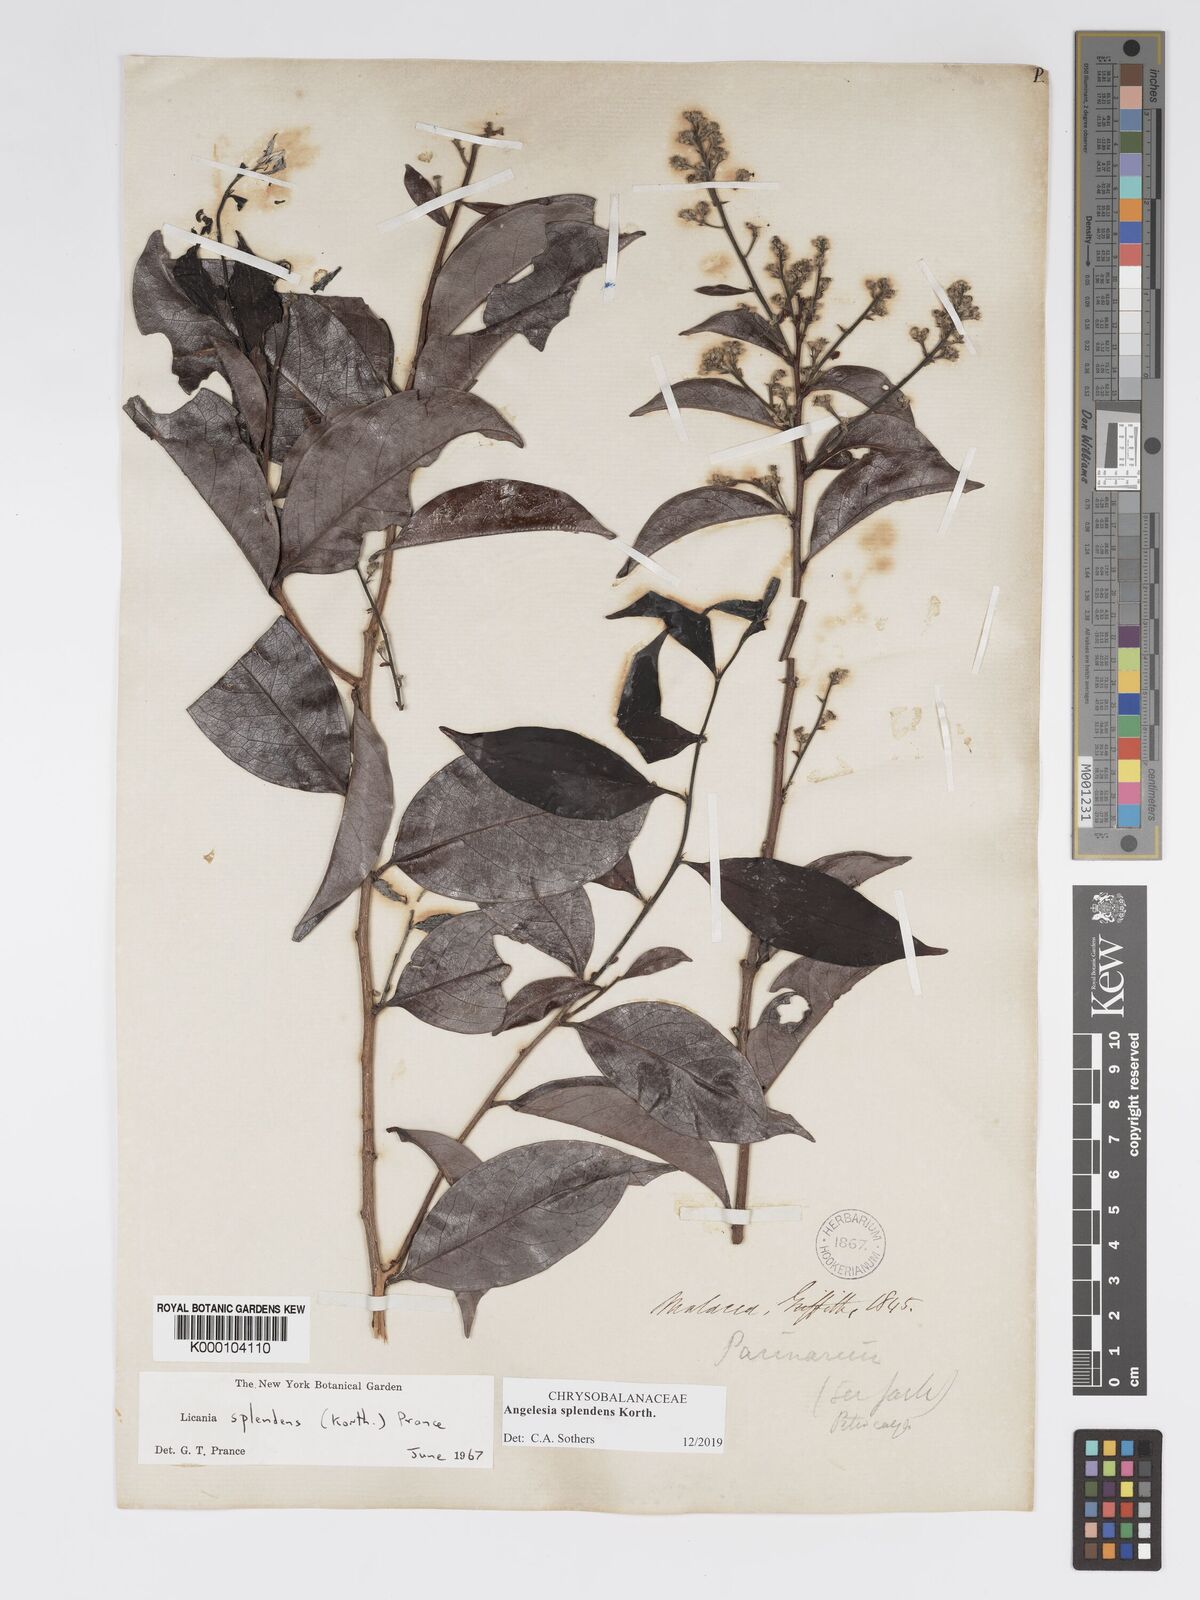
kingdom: Plantae
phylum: Tracheophyta
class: Magnoliopsida
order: Malpighiales
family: Chrysobalanaceae
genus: Angelesia
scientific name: Angelesia splendens
